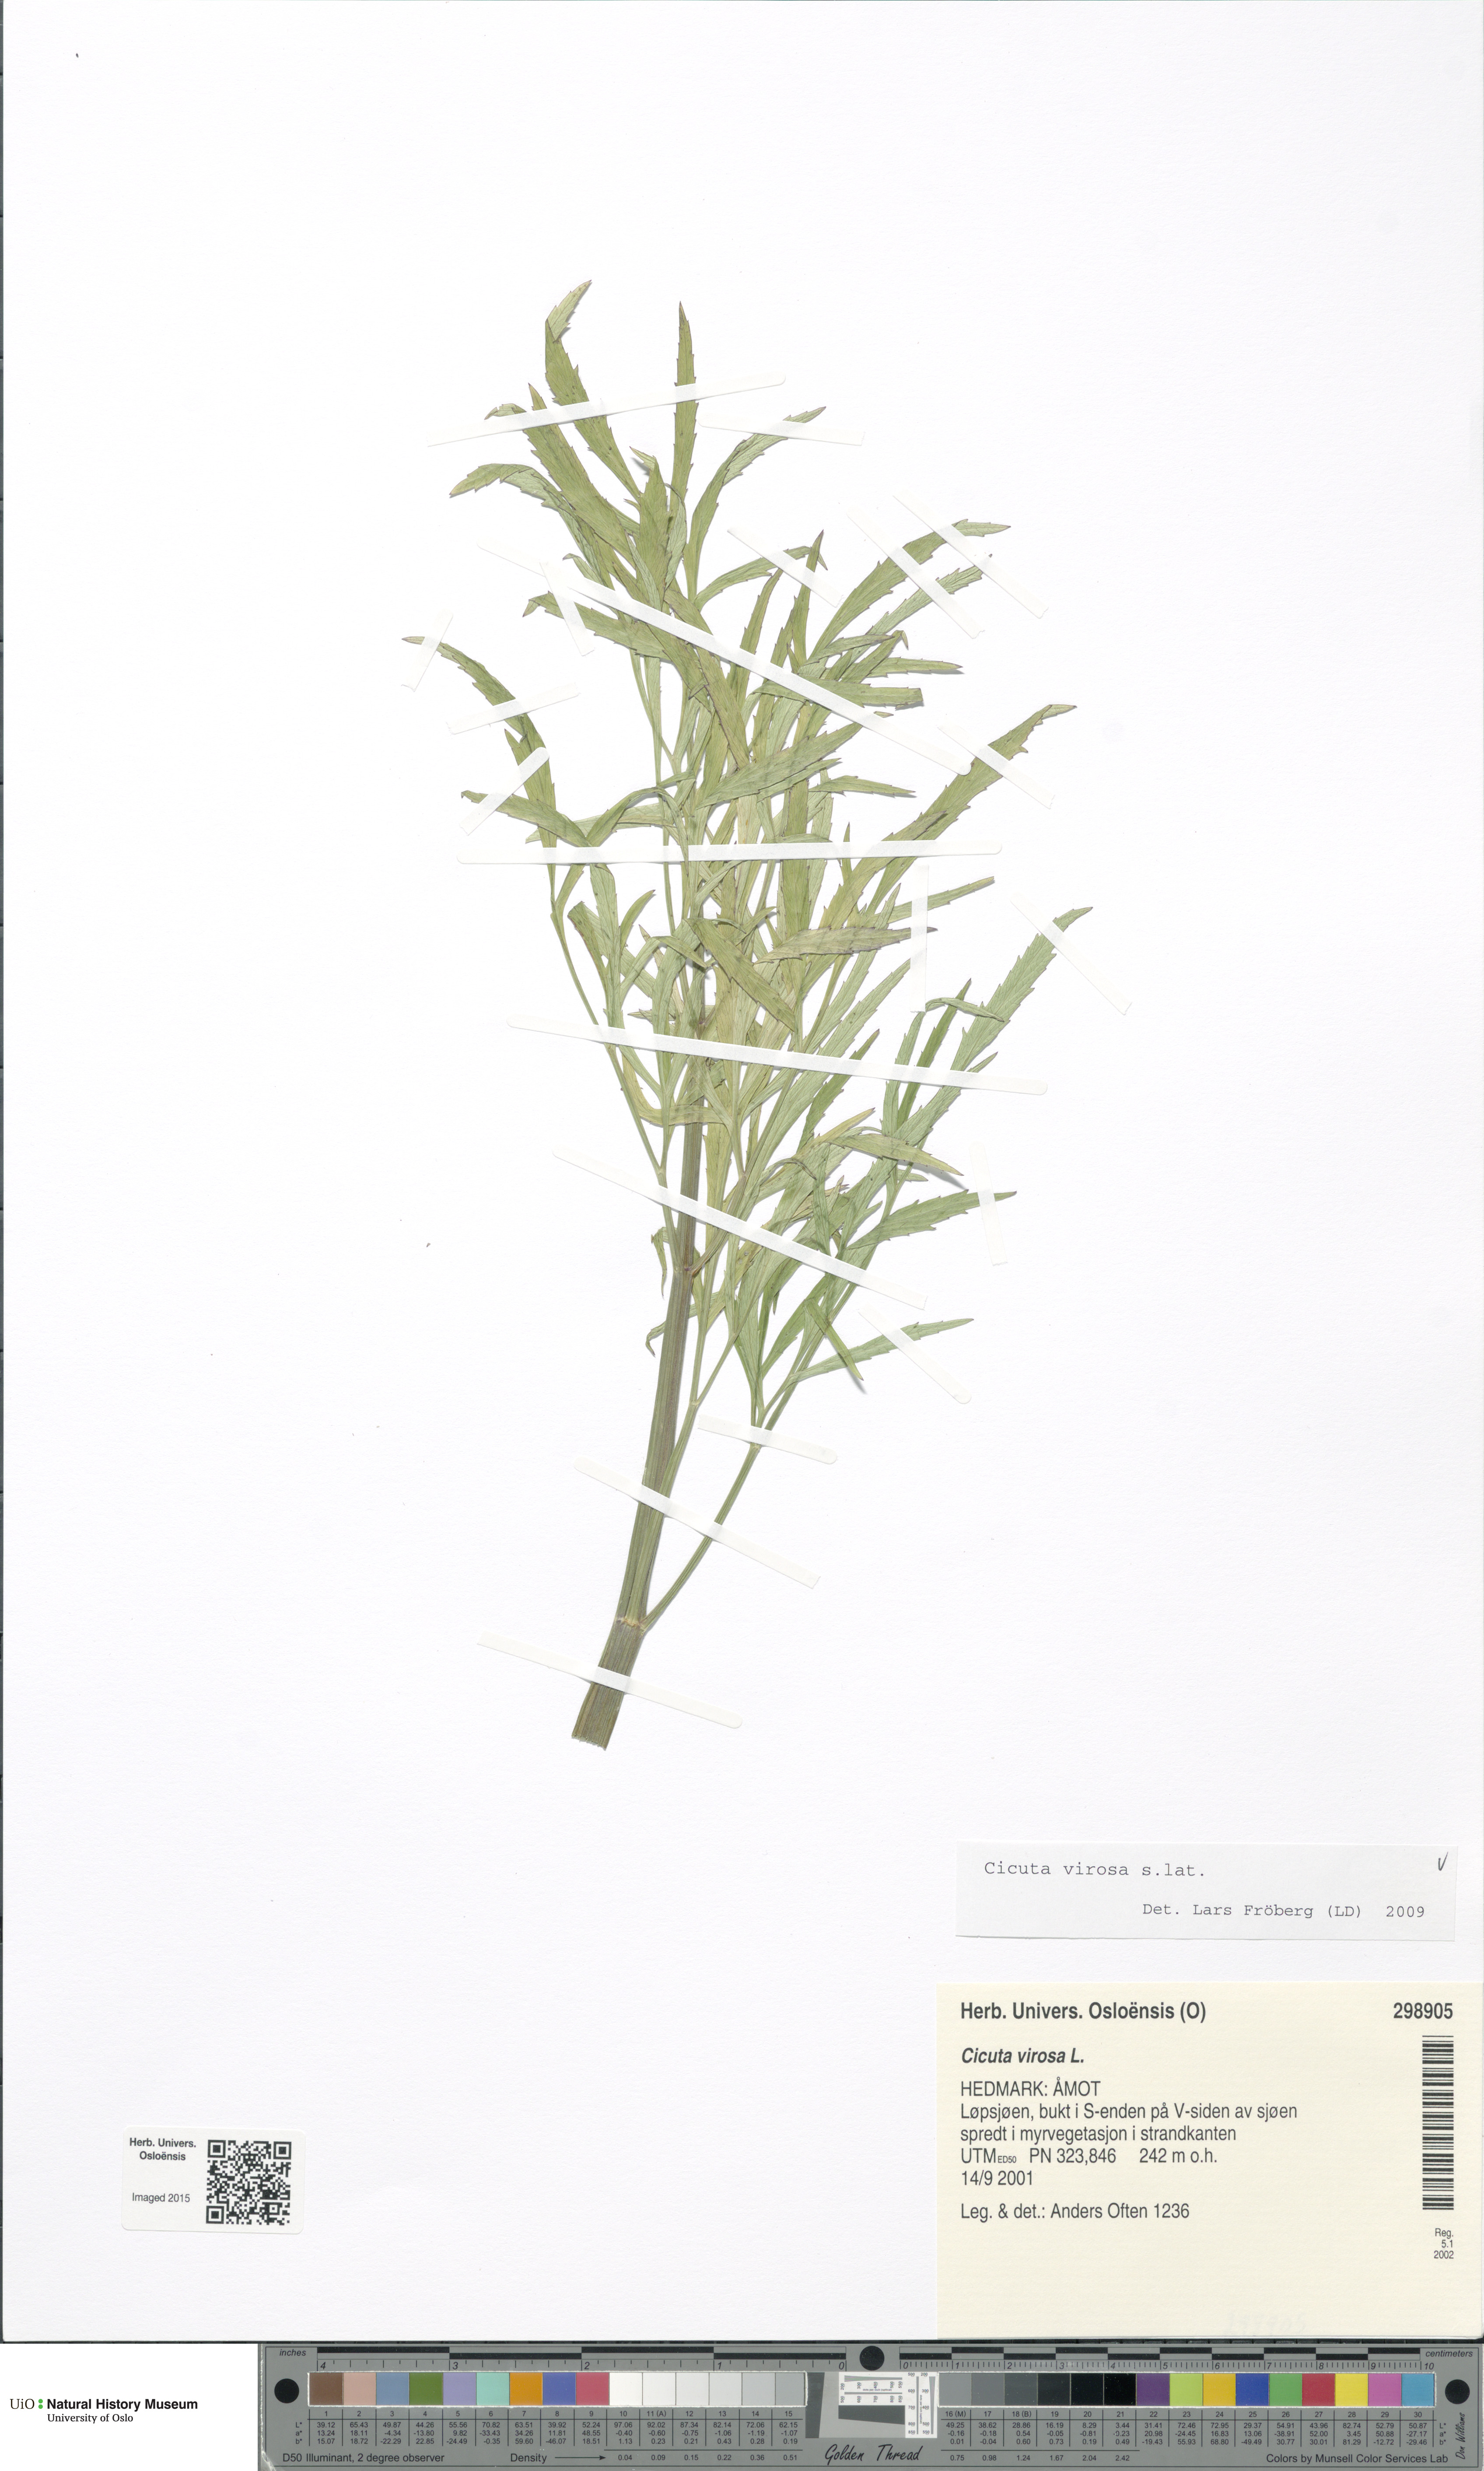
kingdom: Plantae
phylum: Tracheophyta
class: Magnoliopsida
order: Apiales
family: Apiaceae
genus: Cicuta
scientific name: Cicuta virosa
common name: Cowbane
